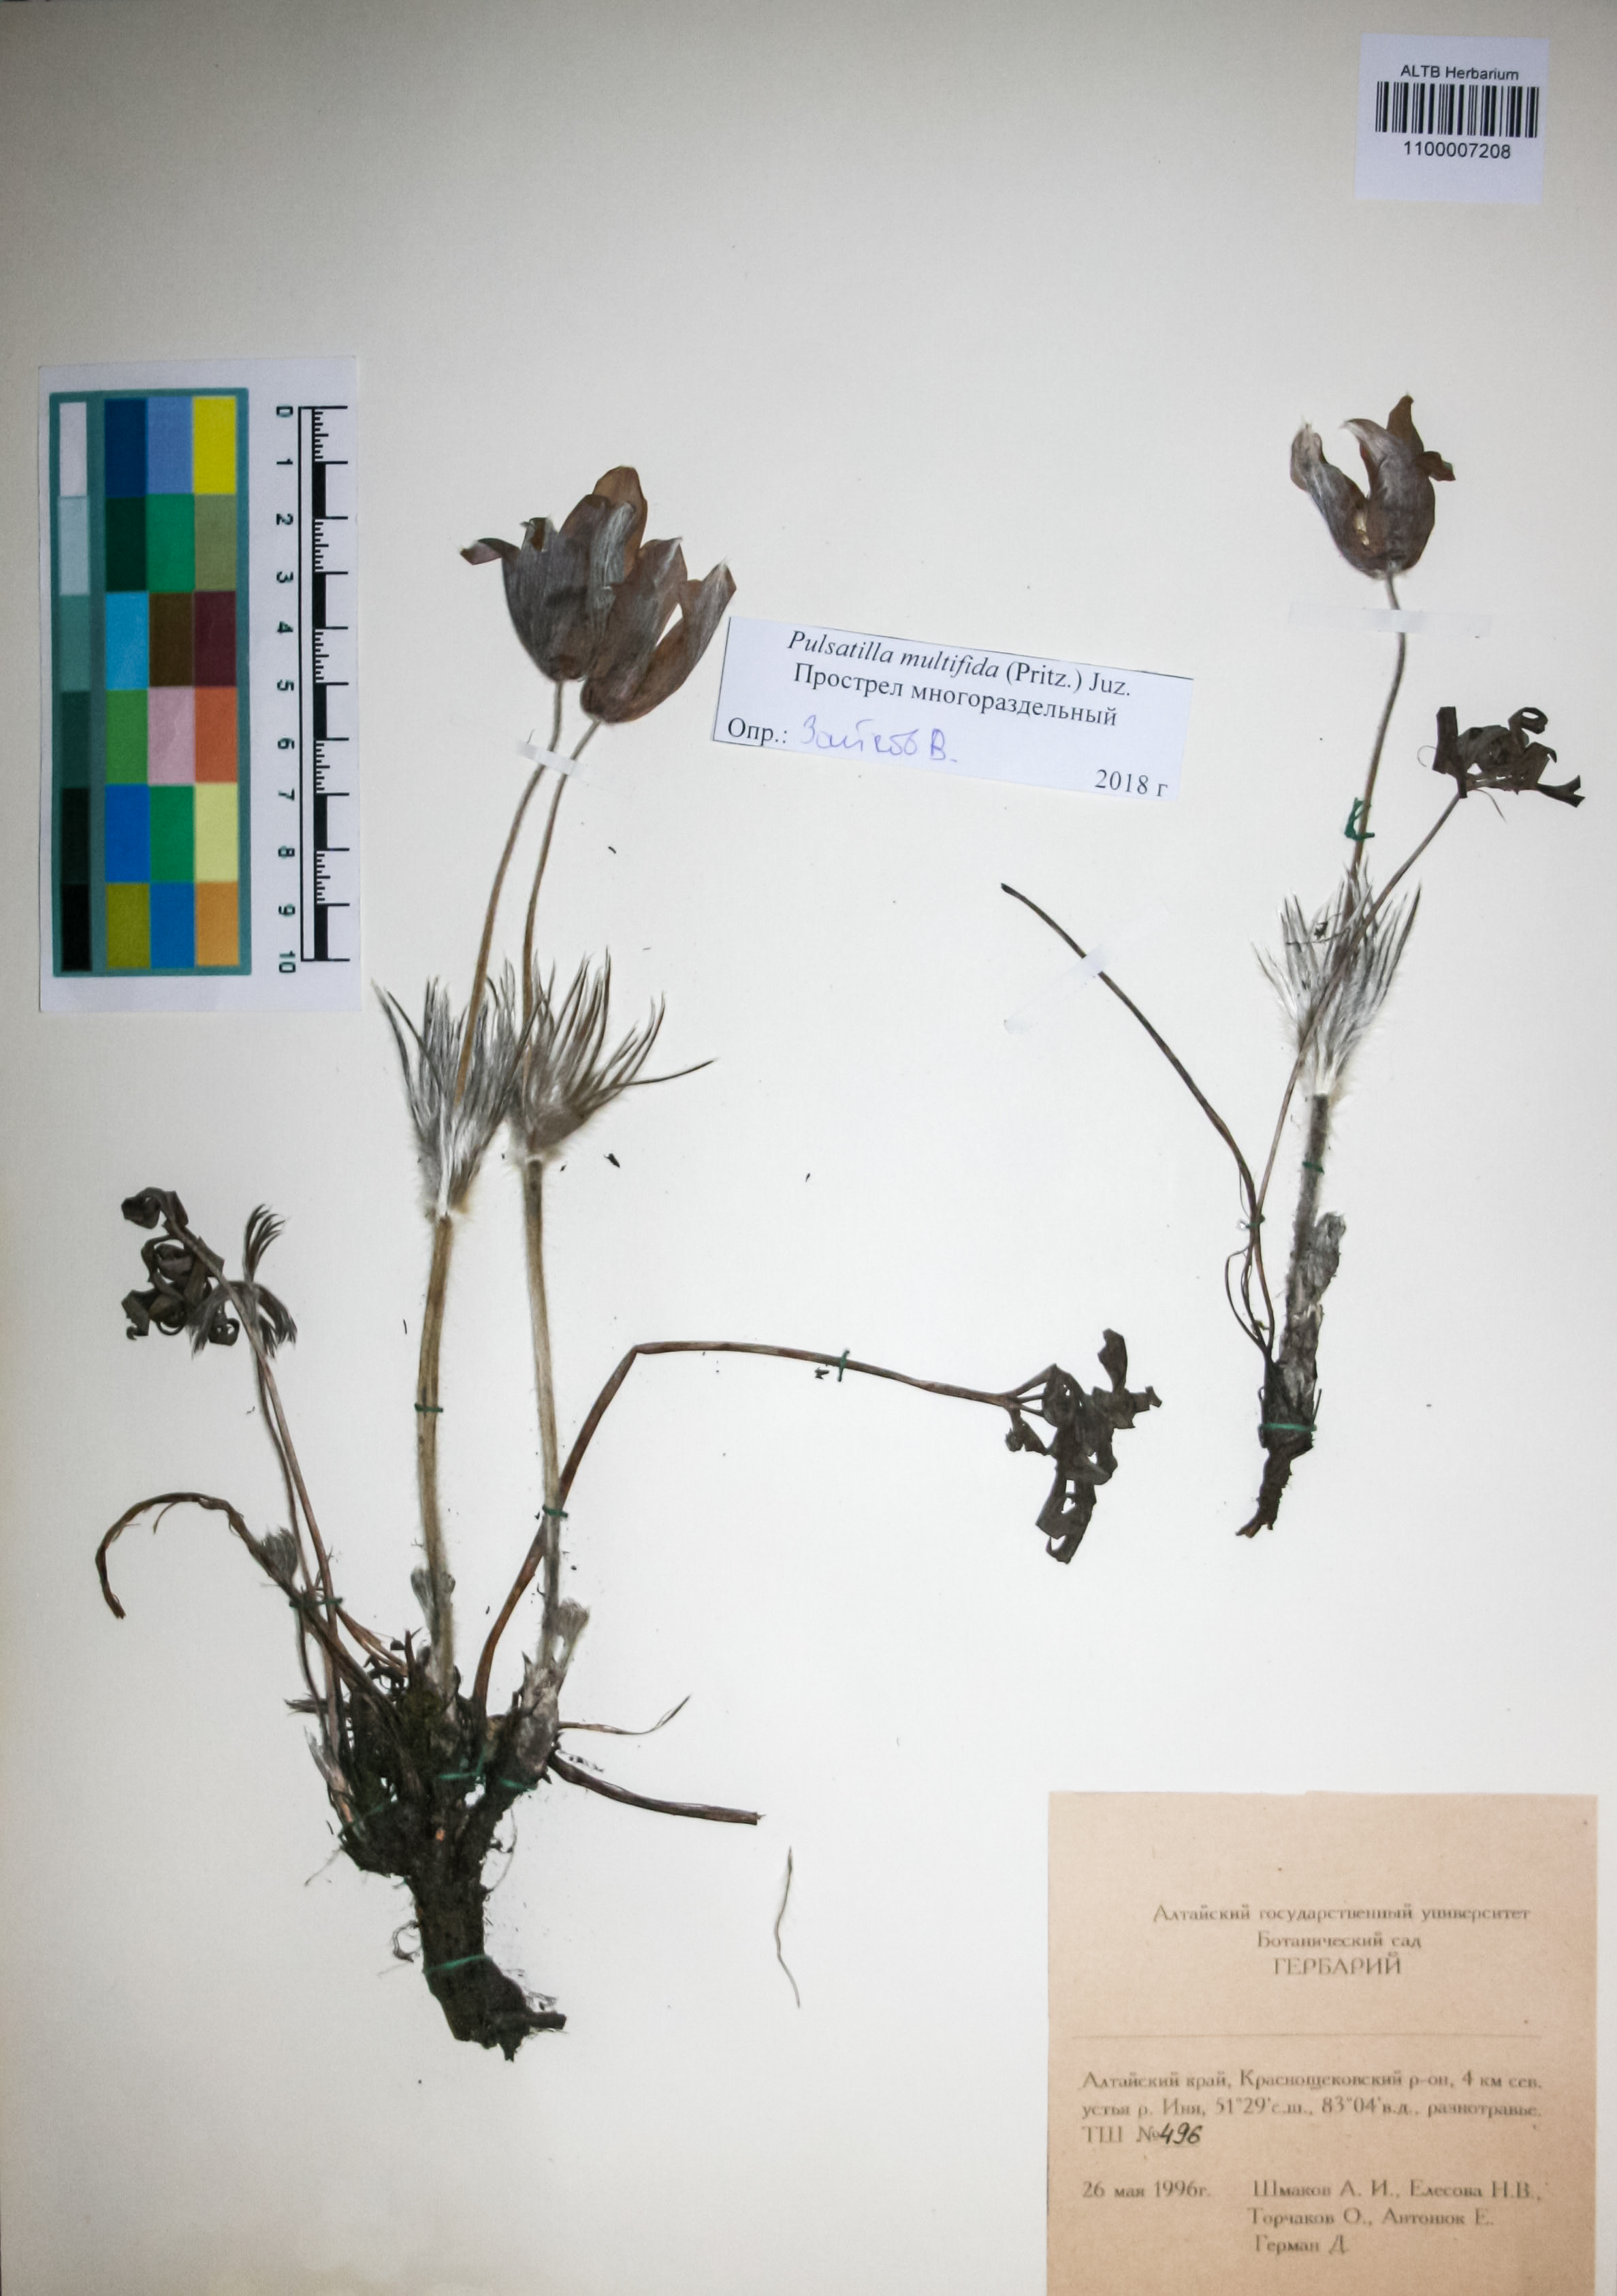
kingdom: Plantae
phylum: Tracheophyta
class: Magnoliopsida
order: Ranunculales
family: Ranunculaceae
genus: Pulsatilla
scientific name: Pulsatilla patens
